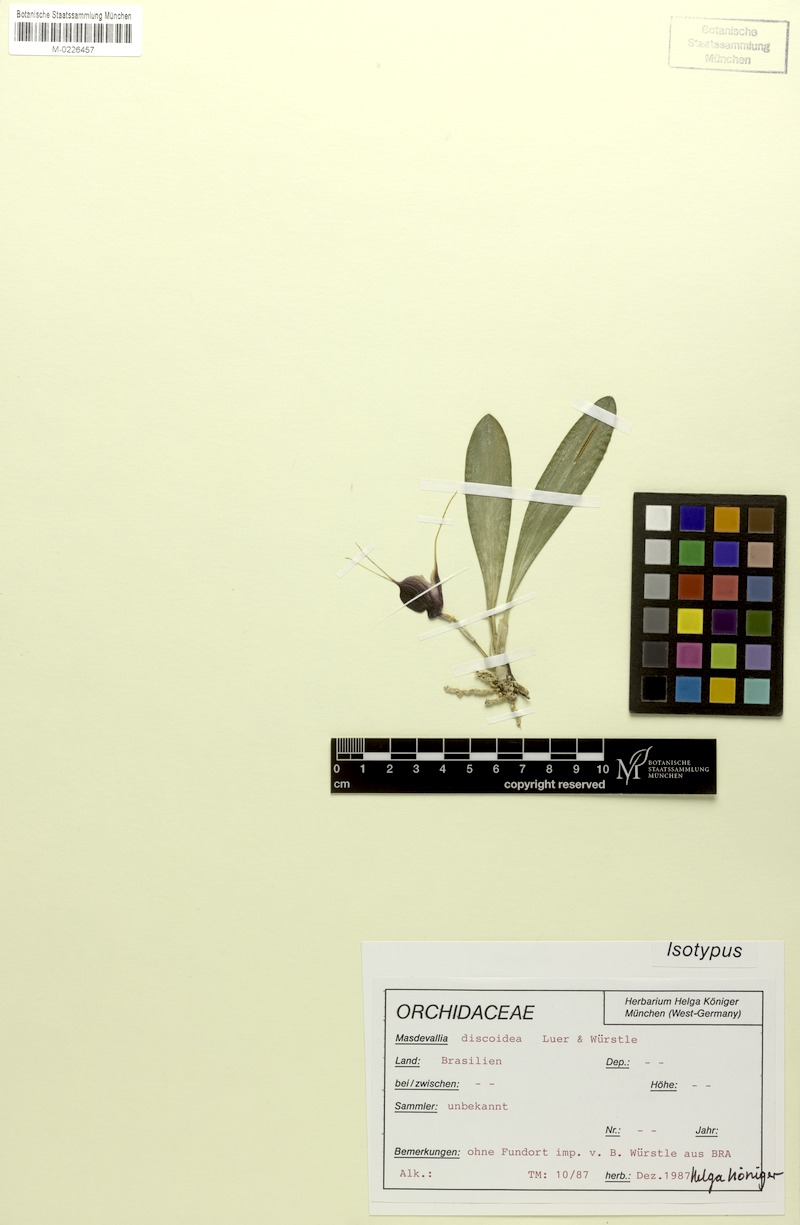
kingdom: Plantae
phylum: Tracheophyta
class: Liliopsida
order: Asparagales
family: Orchidaceae
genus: Masdevallia
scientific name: Masdevallia discoidea
